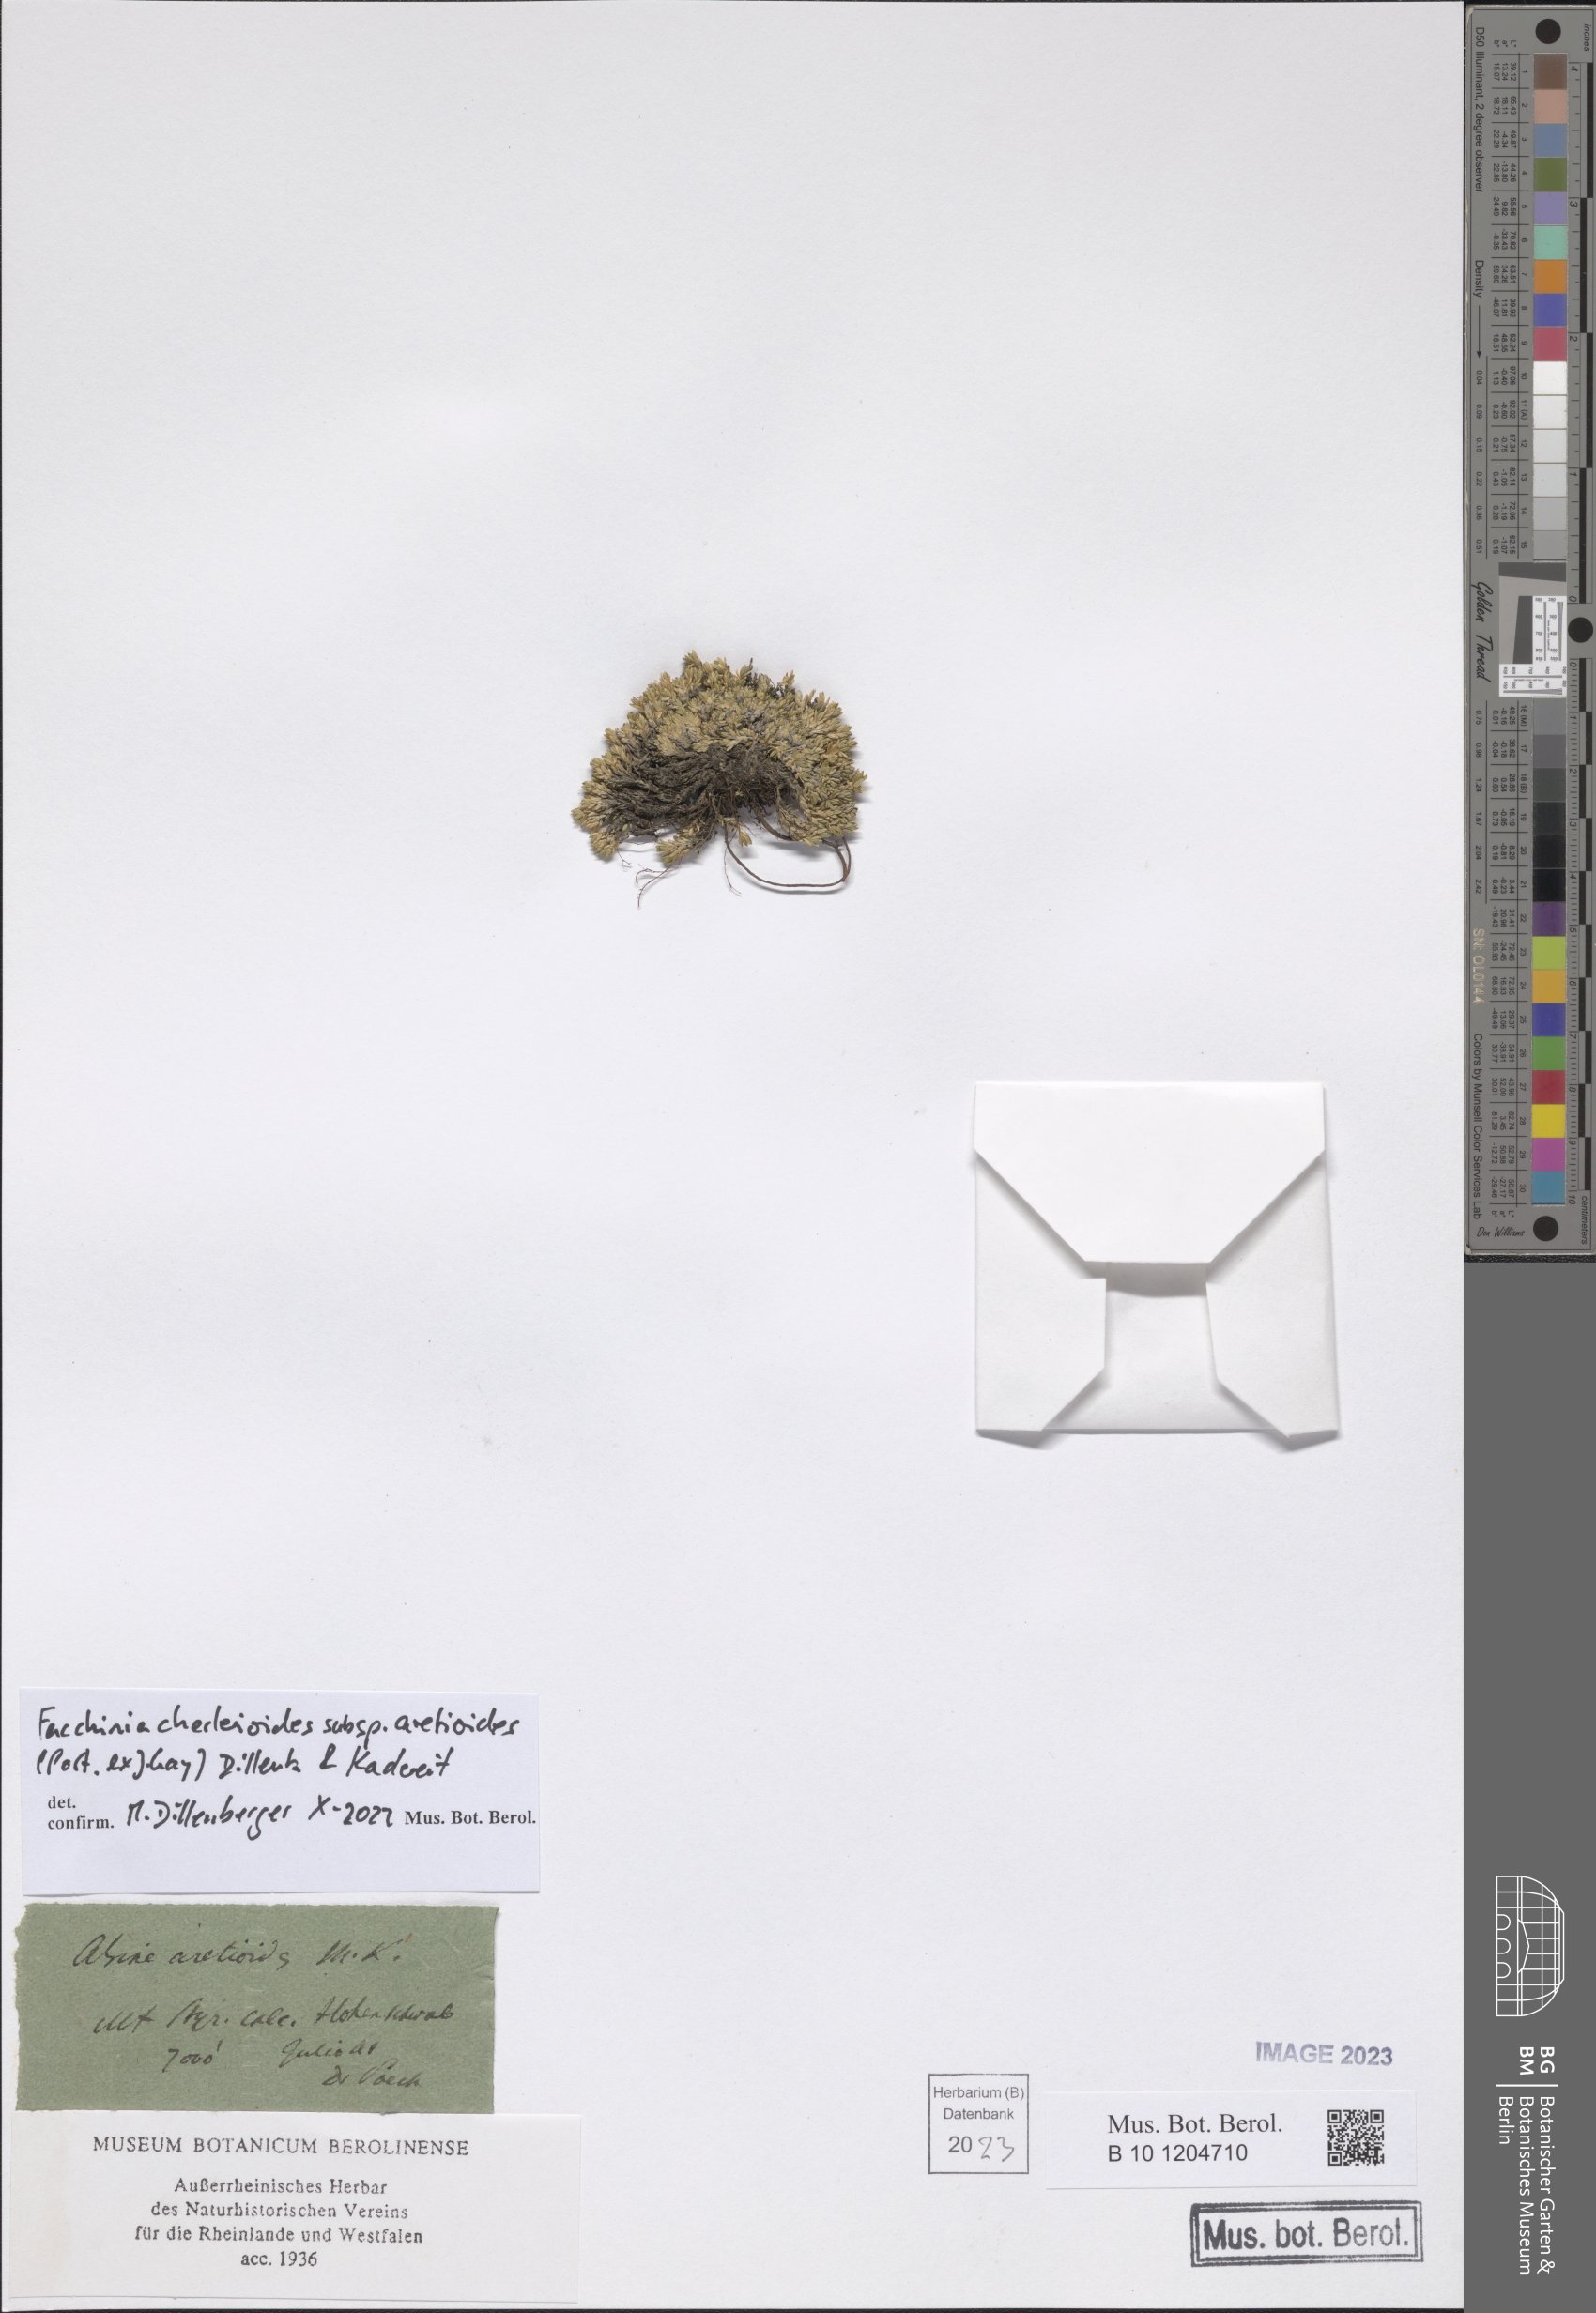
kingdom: Plantae
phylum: Tracheophyta
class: Magnoliopsida
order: Caryophyllales
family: Caryophyllaceae
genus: Facchinia
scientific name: Facchinia cherlerioides
